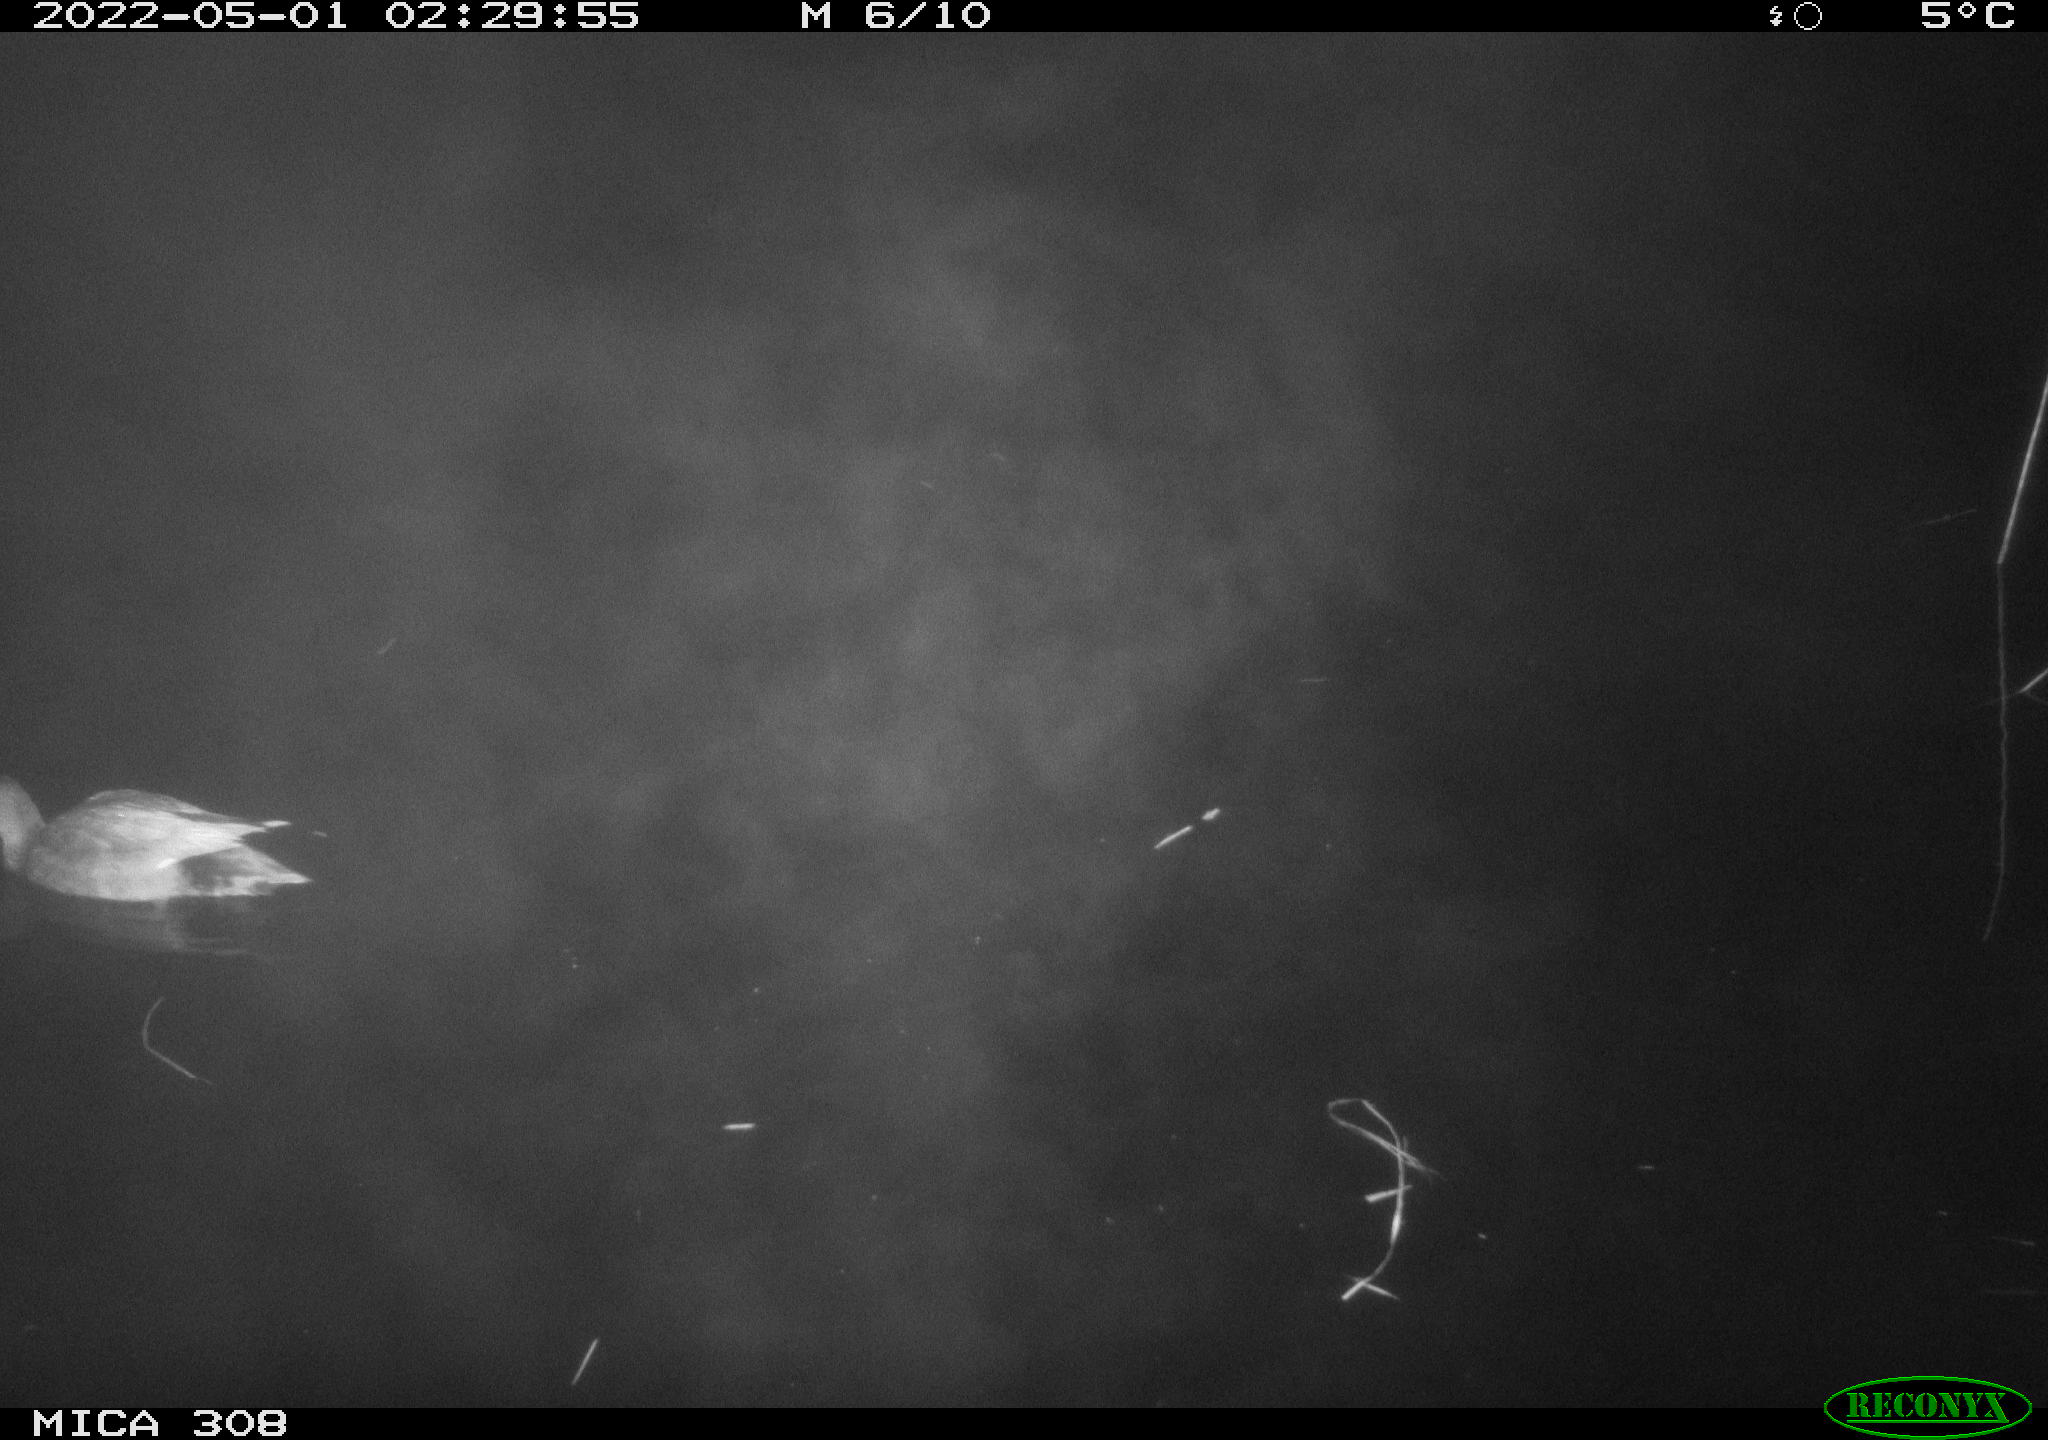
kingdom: Animalia
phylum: Chordata
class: Aves
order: Anseriformes
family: Anatidae
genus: Mareca
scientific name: Mareca strepera
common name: Gadwall
